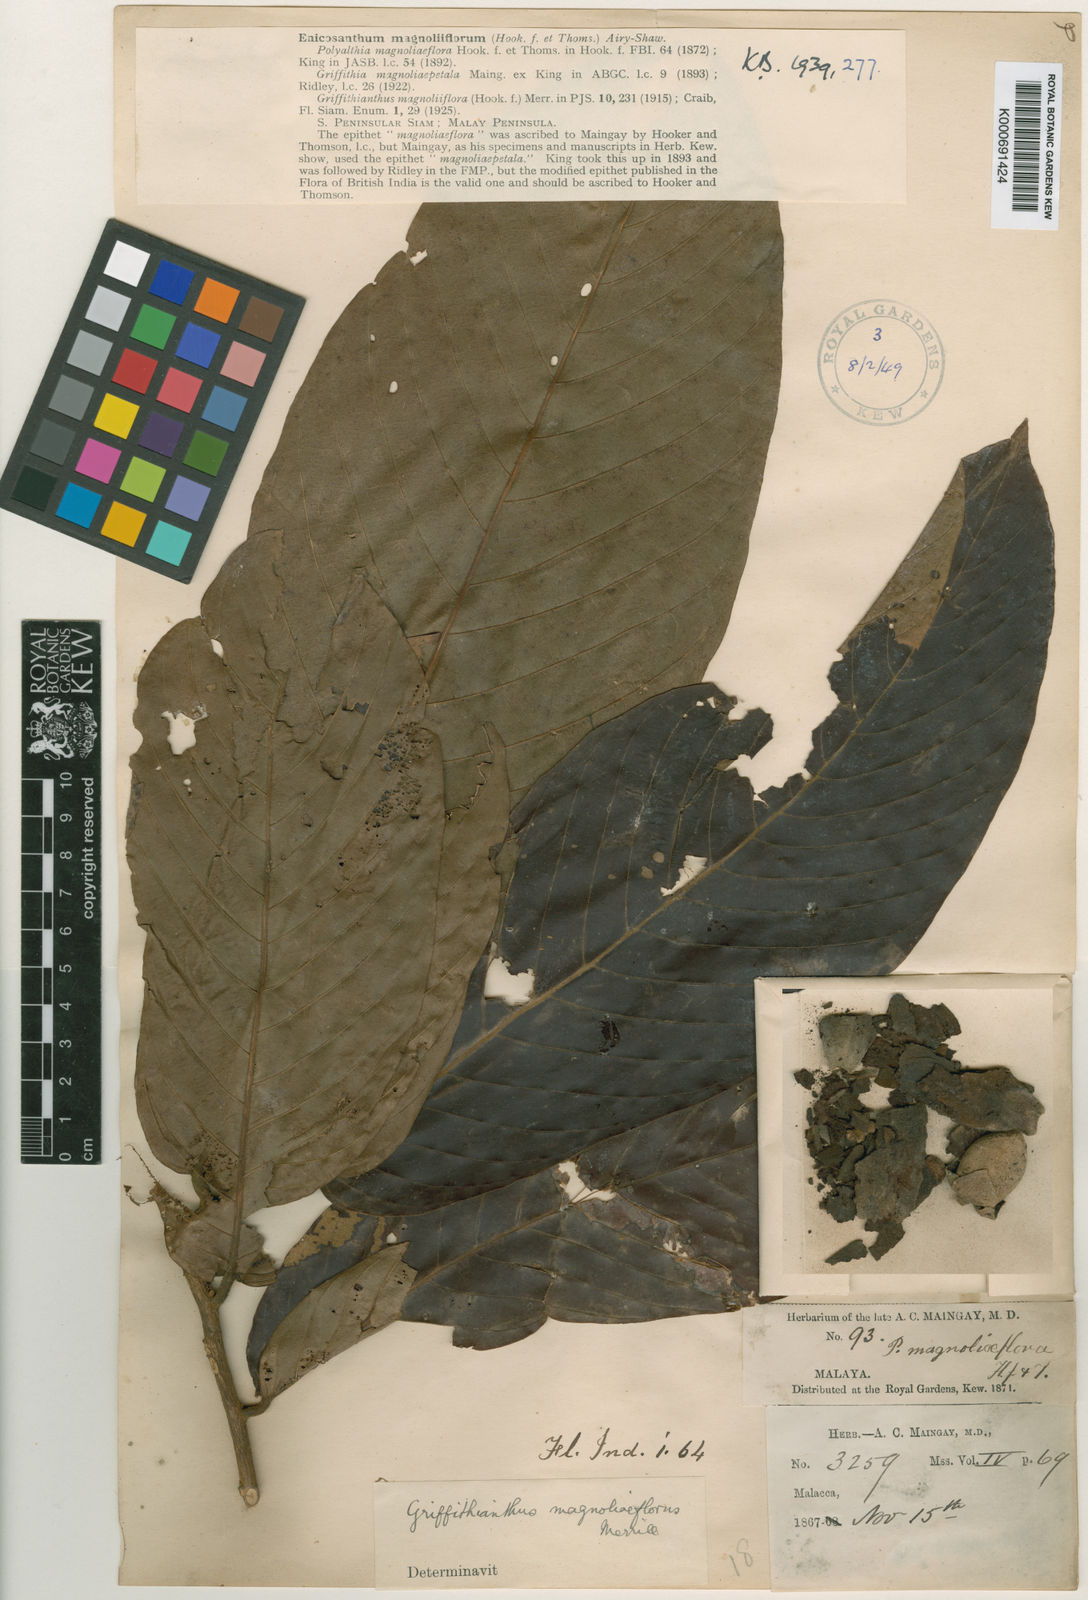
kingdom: Plantae
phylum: Tracheophyta
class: Magnoliopsida
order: Magnoliales
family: Annonaceae
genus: Enicosanthum
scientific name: Enicosanthum magnoliiflorum
